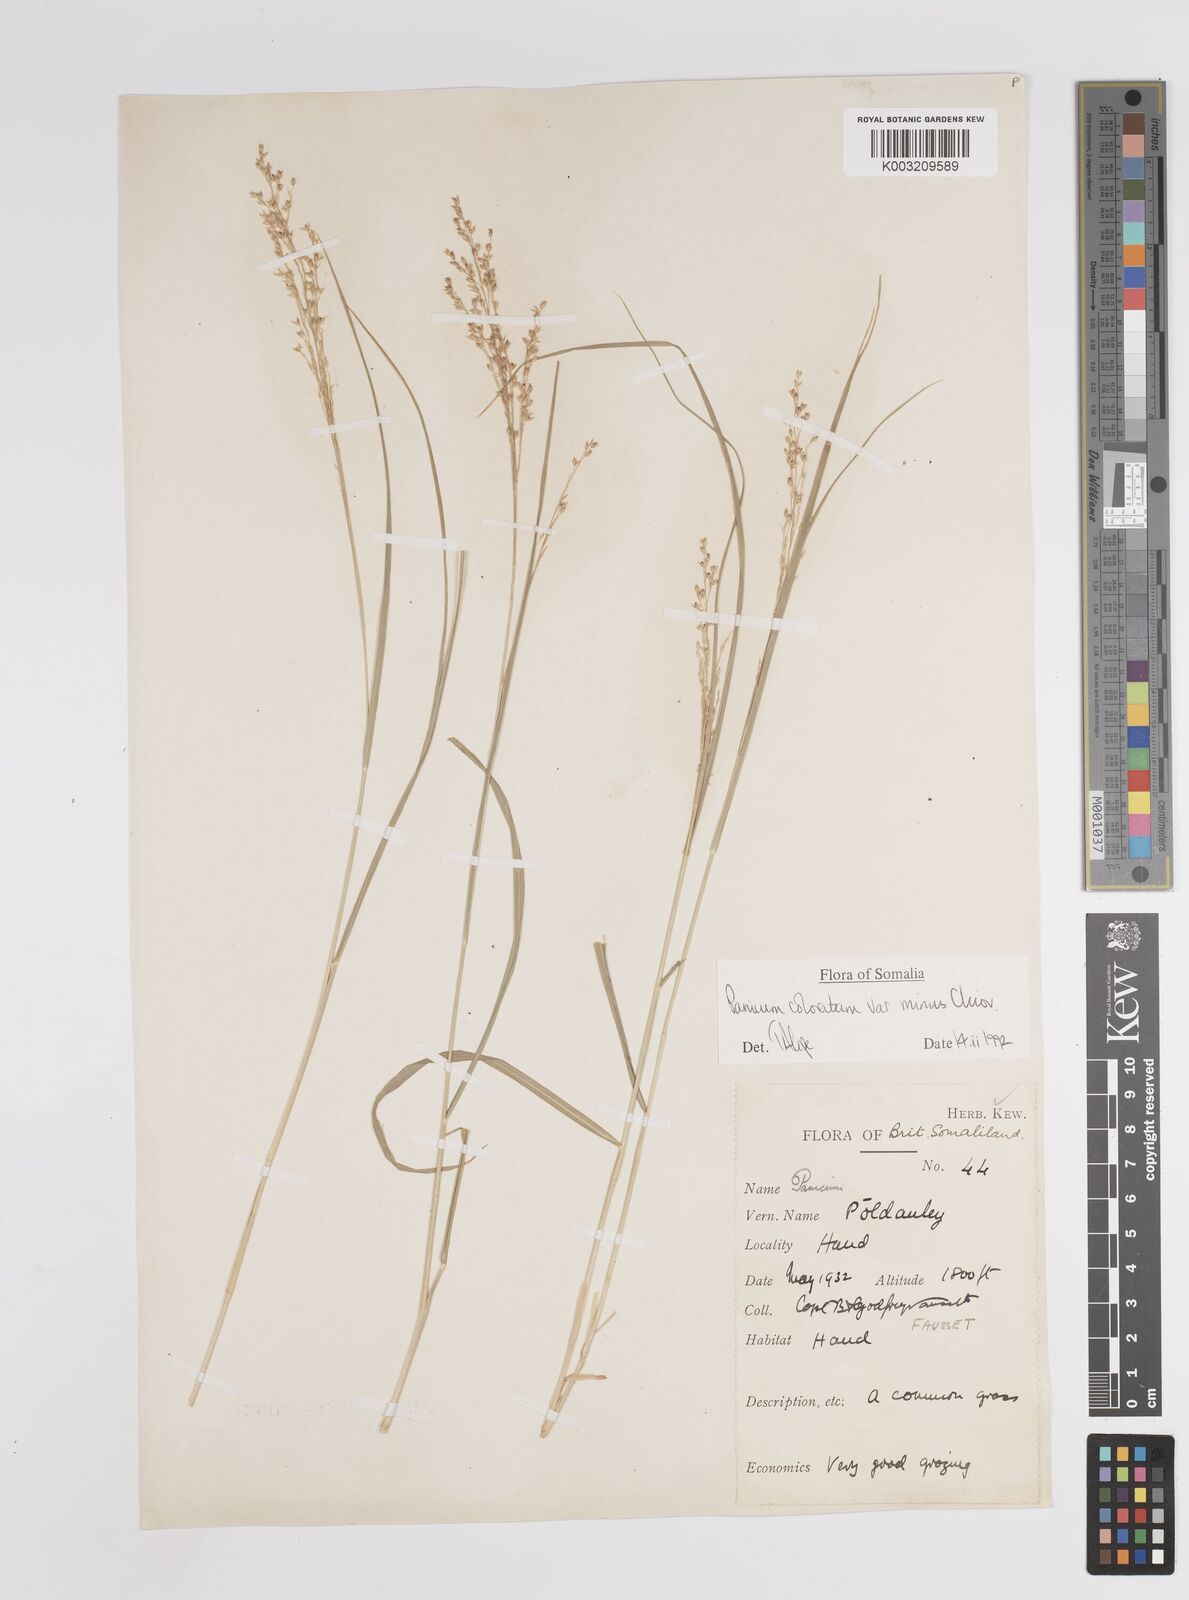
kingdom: Plantae
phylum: Tracheophyta
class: Liliopsida
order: Poales
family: Poaceae
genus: Panicum
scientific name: Panicum coloratum
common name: Kleingrass
